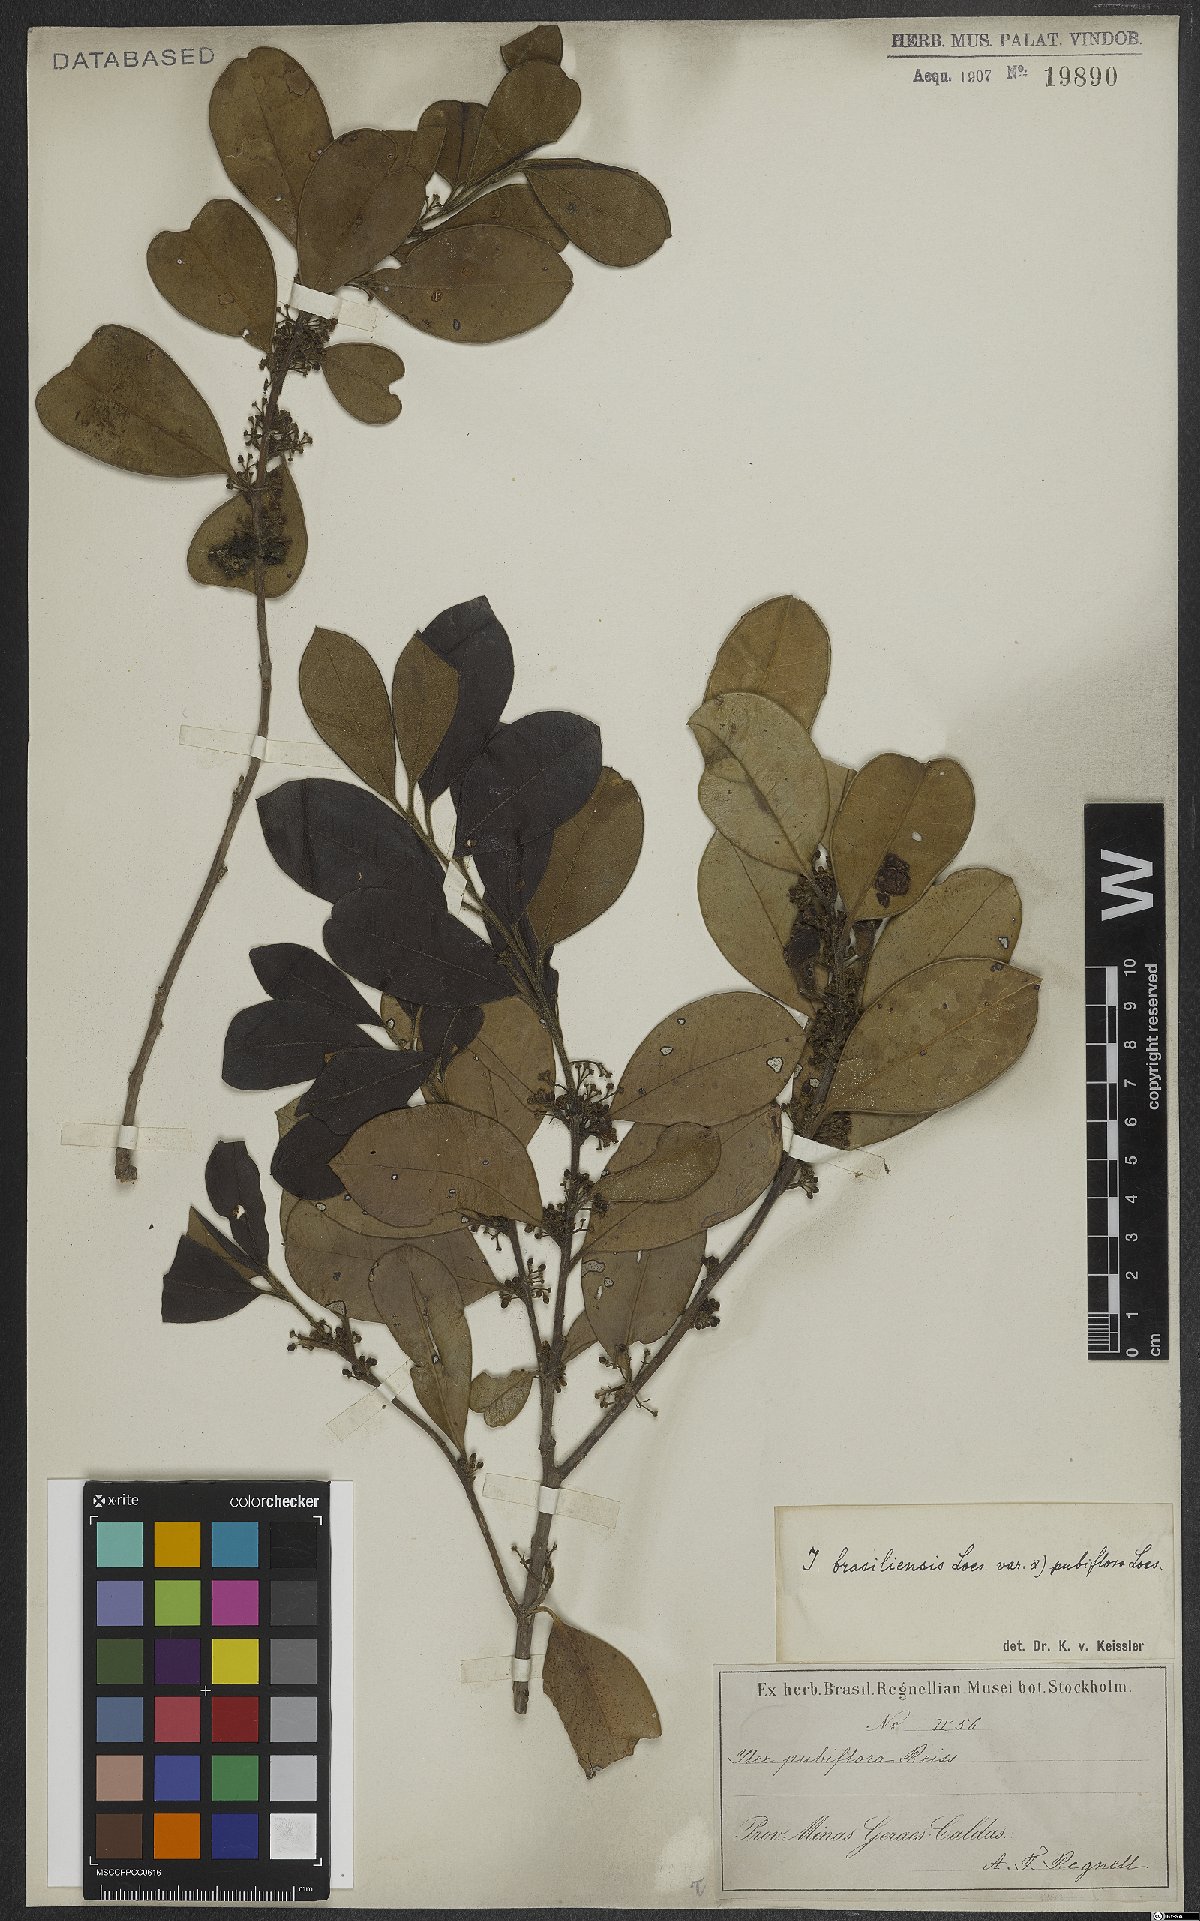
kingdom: Plantae
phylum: Tracheophyta
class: Magnoliopsida
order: Aquifoliales
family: Aquifoliaceae
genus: Ilex
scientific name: Ilex brasiliensis
